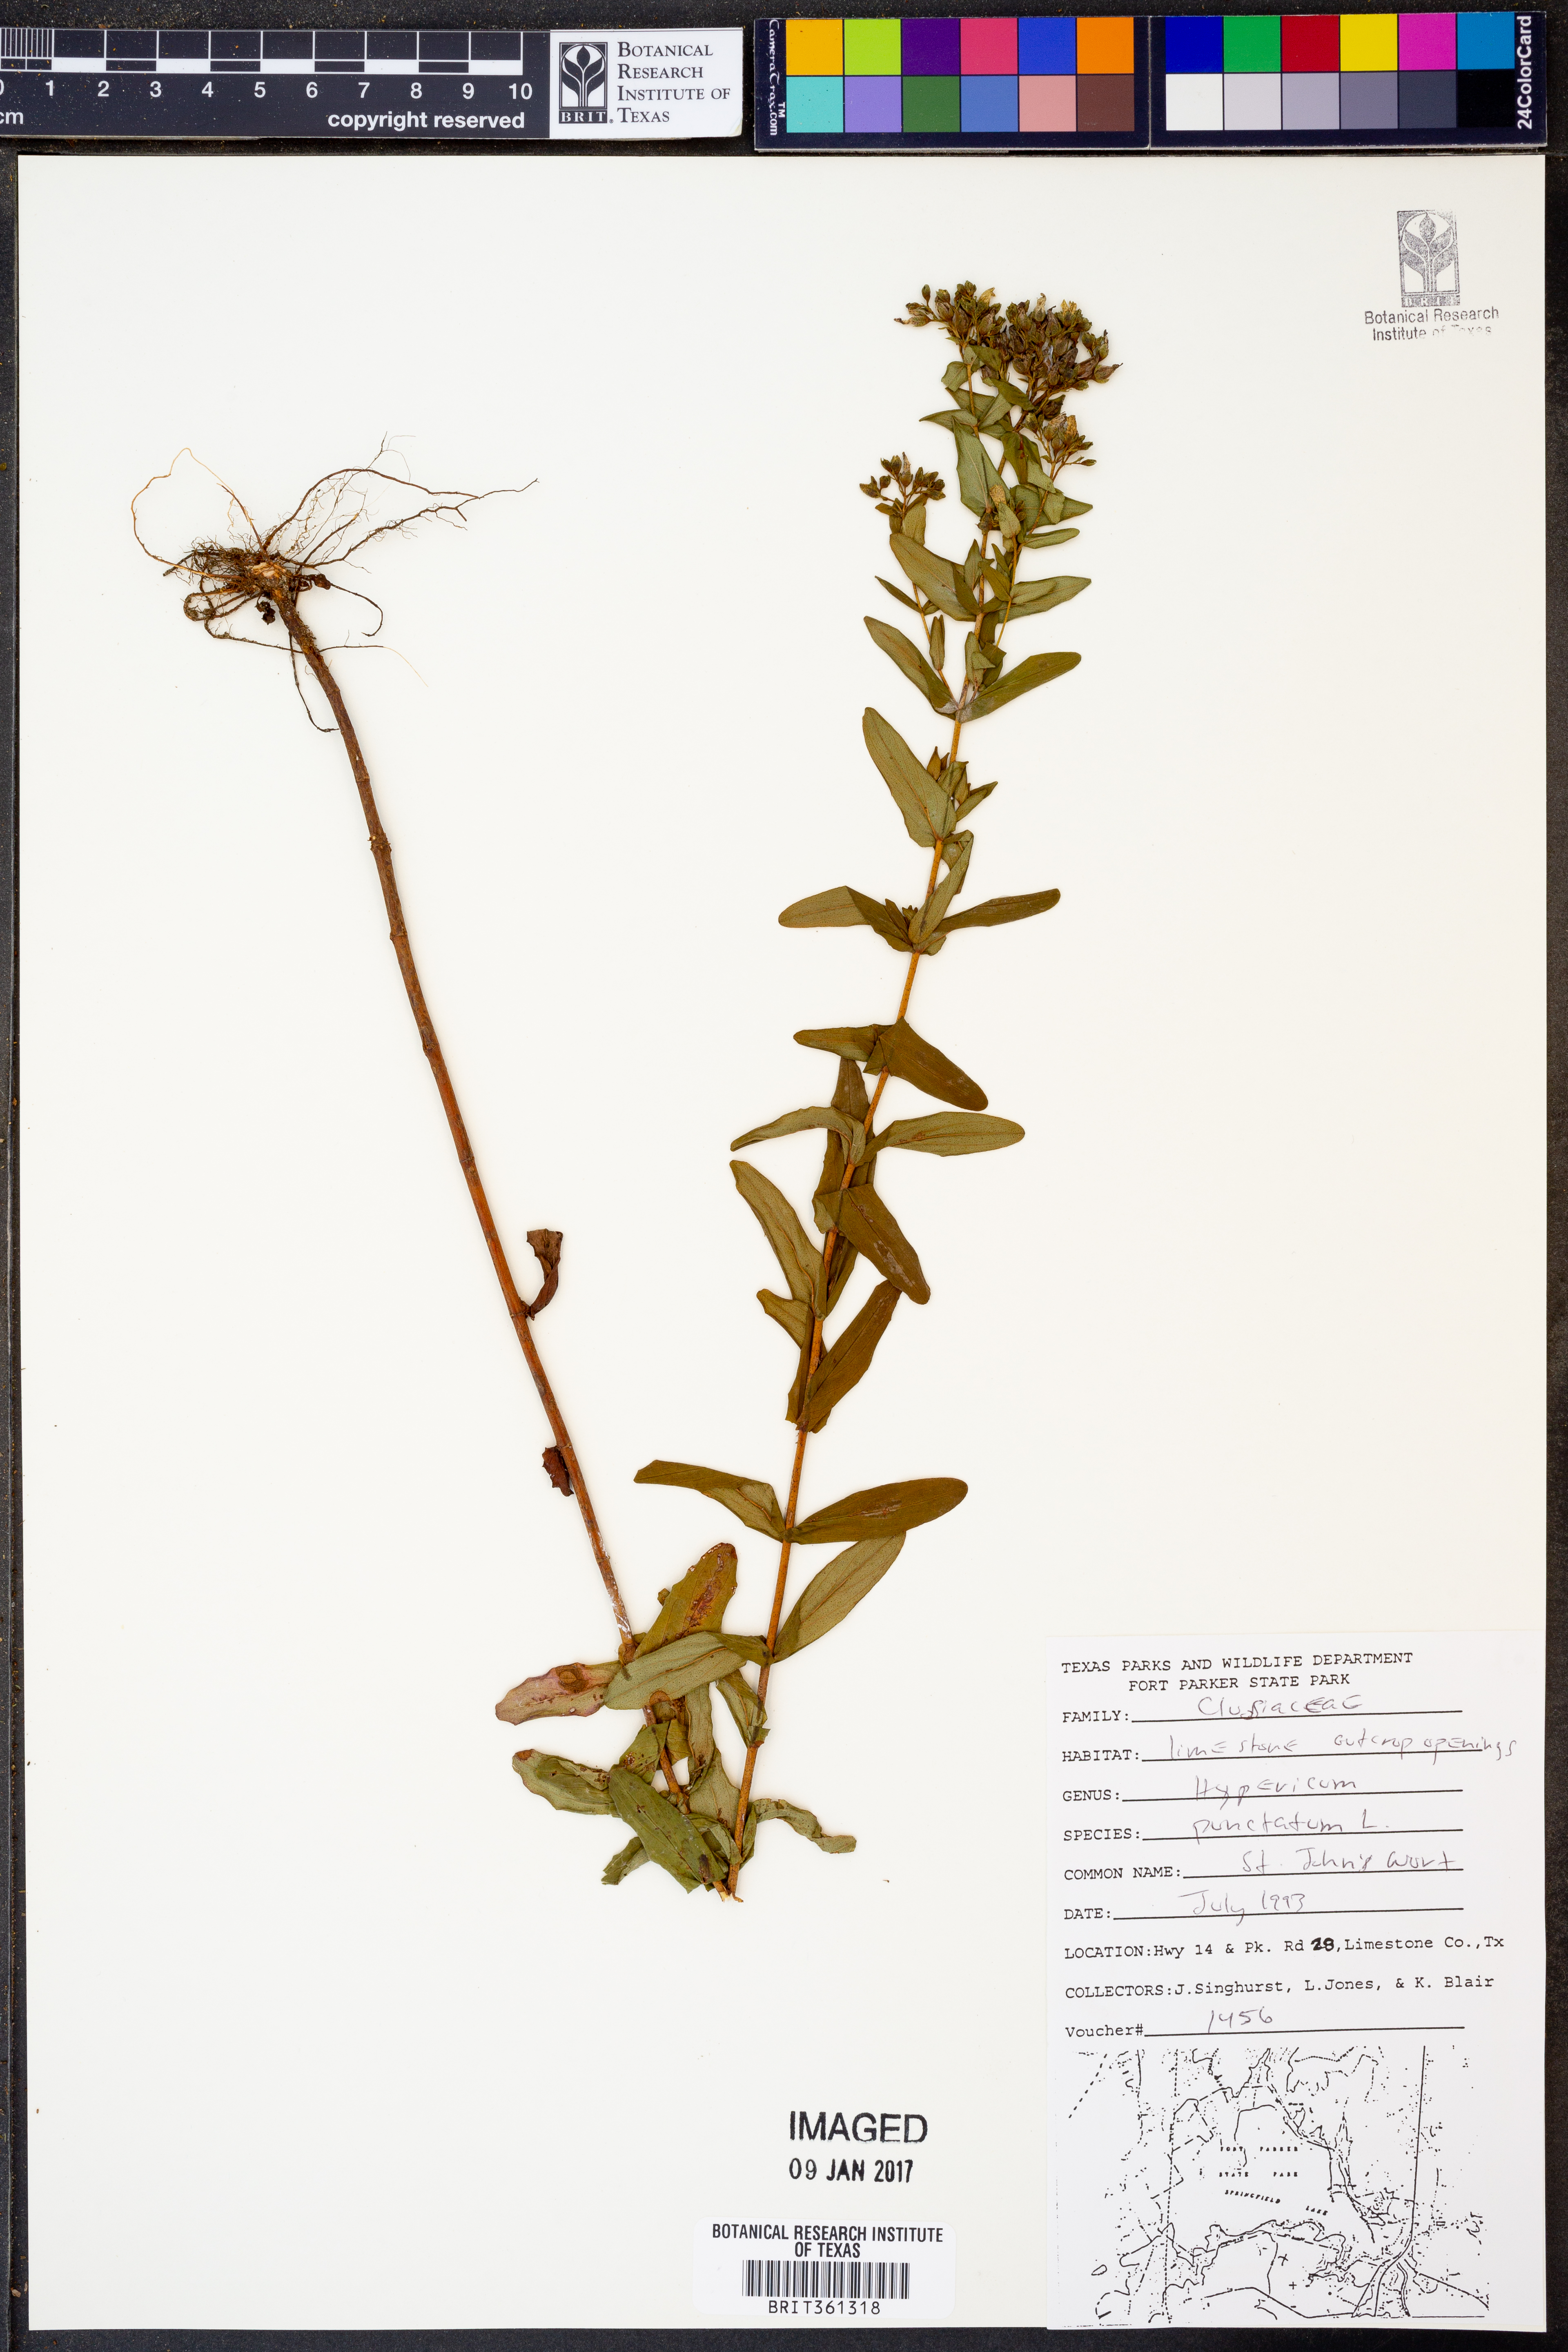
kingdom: Plantae
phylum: Tracheophyta
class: Magnoliopsida
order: Malpighiales
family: Hypericaceae
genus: Hypericum
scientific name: Hypericum punctatum
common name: Spotted st. john's-wort
